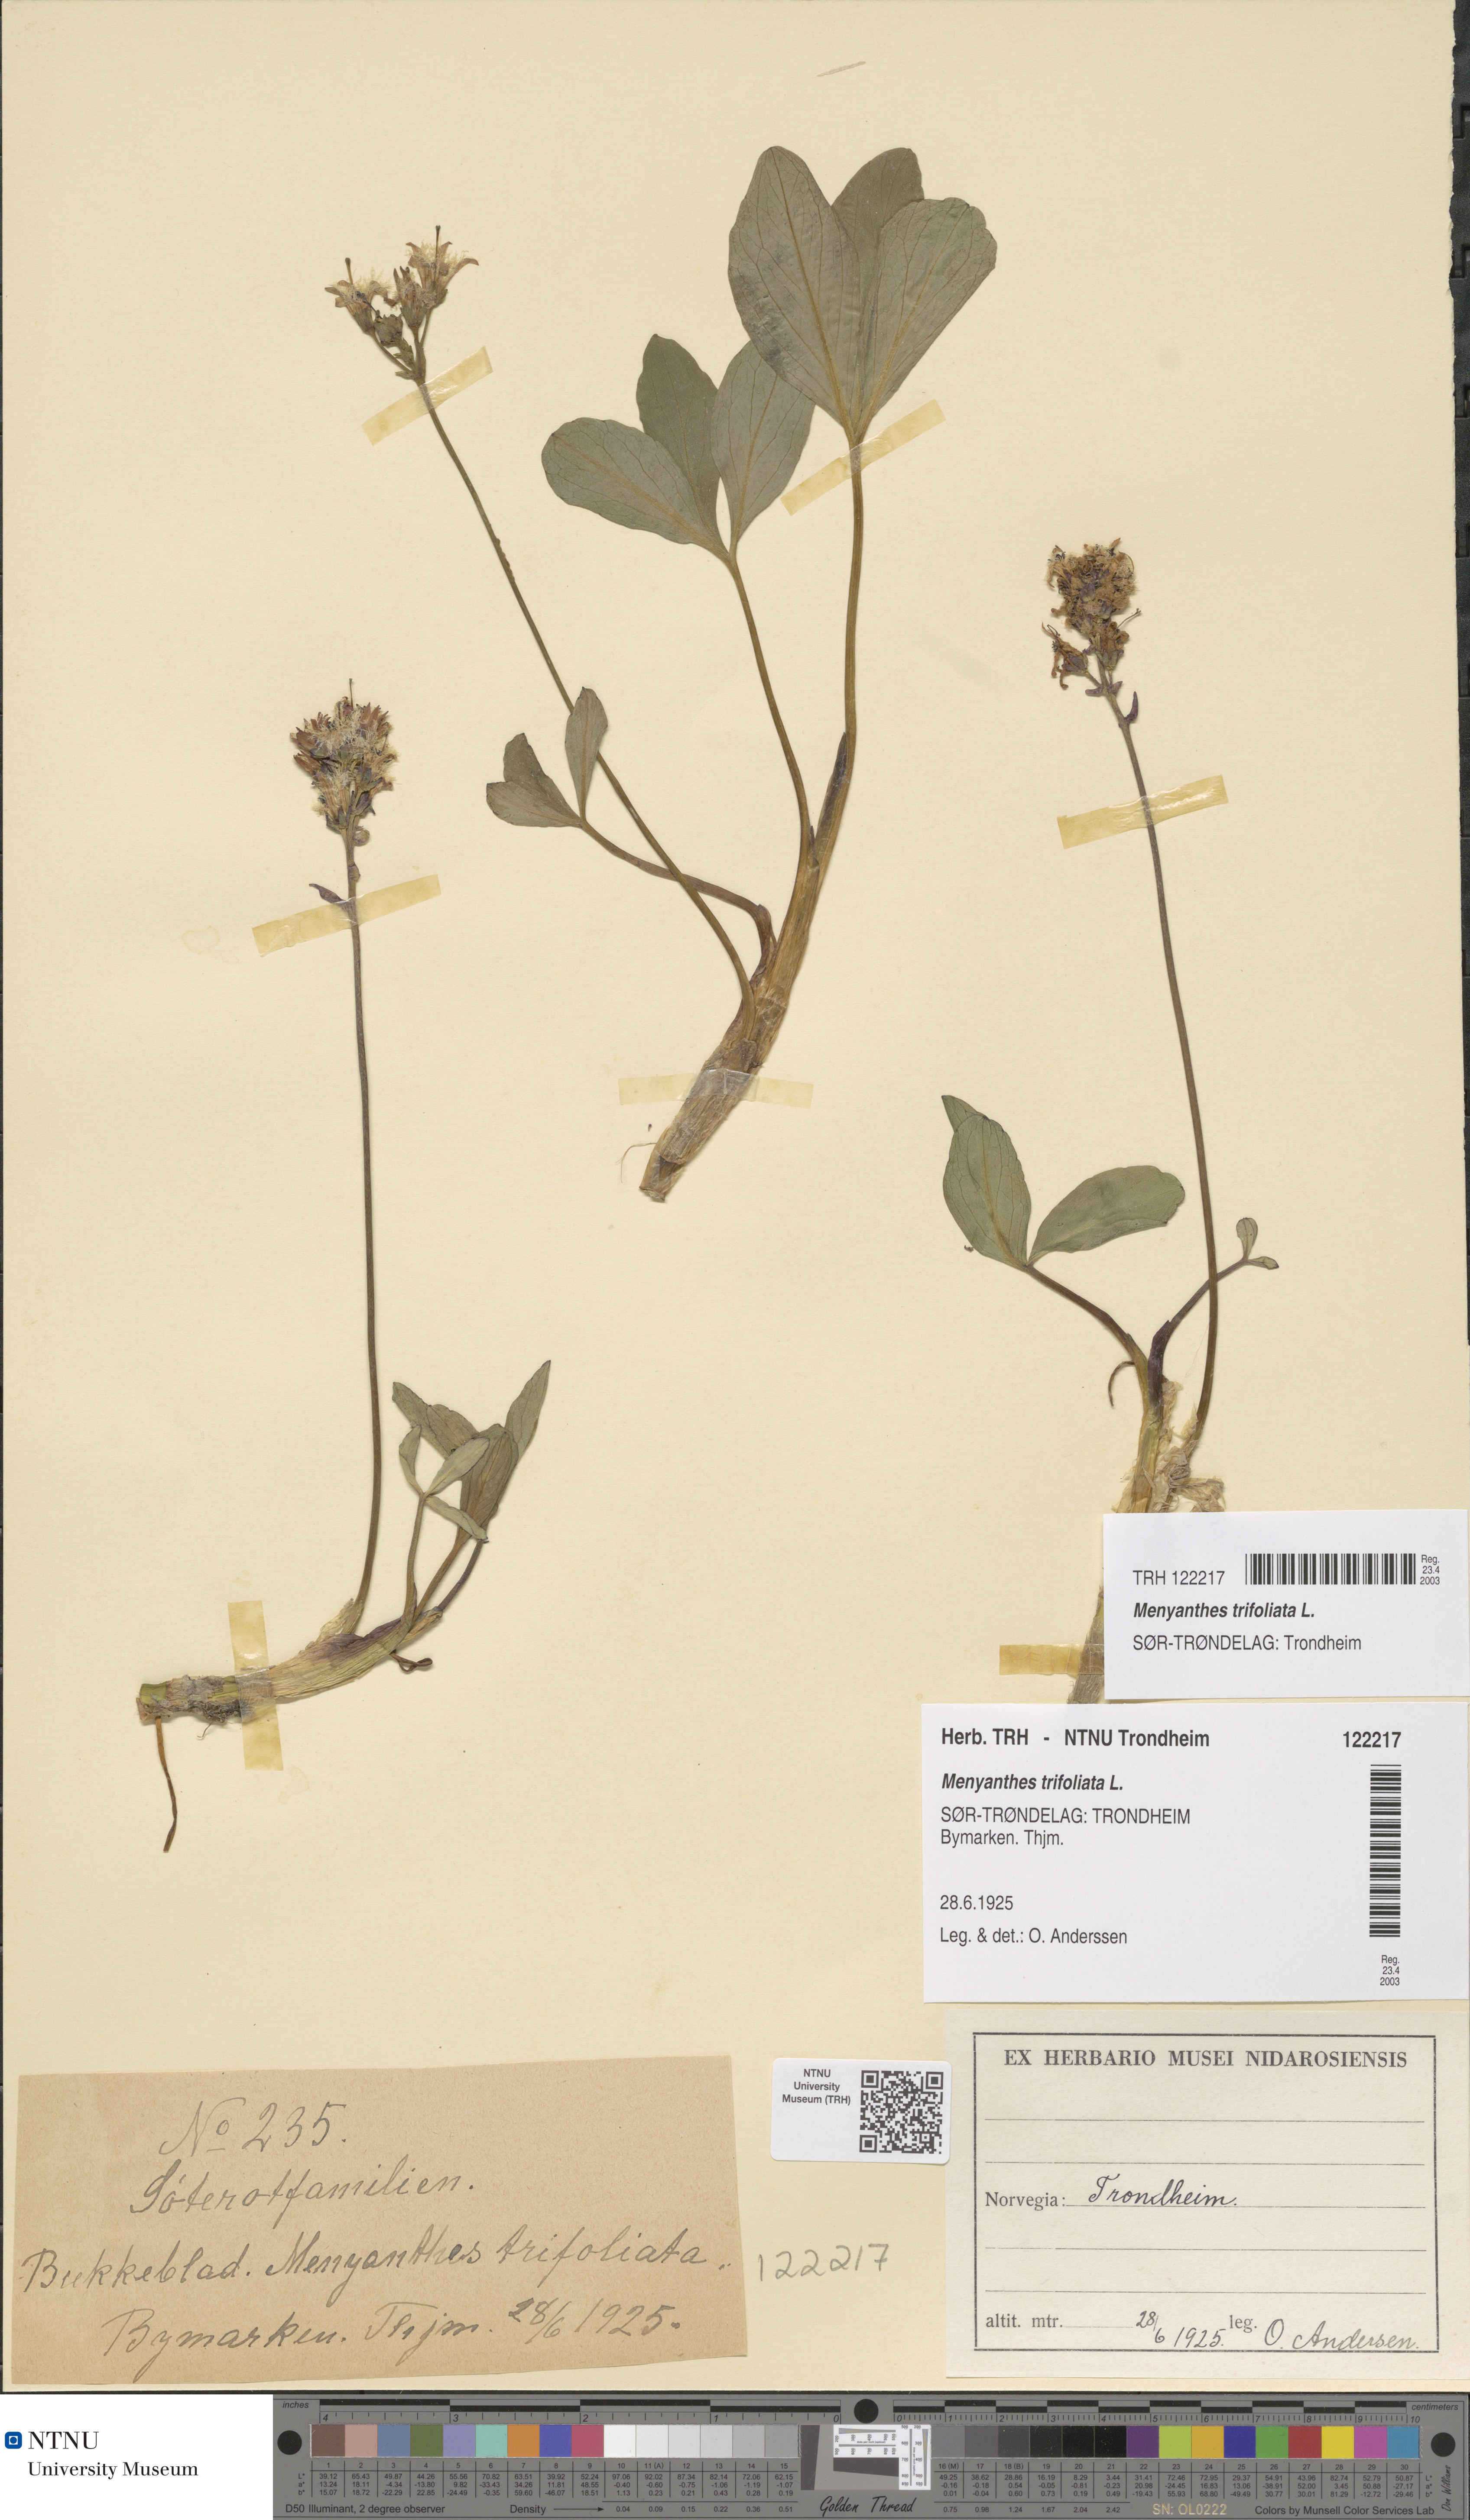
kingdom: Plantae
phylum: Tracheophyta
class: Magnoliopsida
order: Asterales
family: Menyanthaceae
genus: Menyanthes
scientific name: Menyanthes trifoliata
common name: Bogbean
